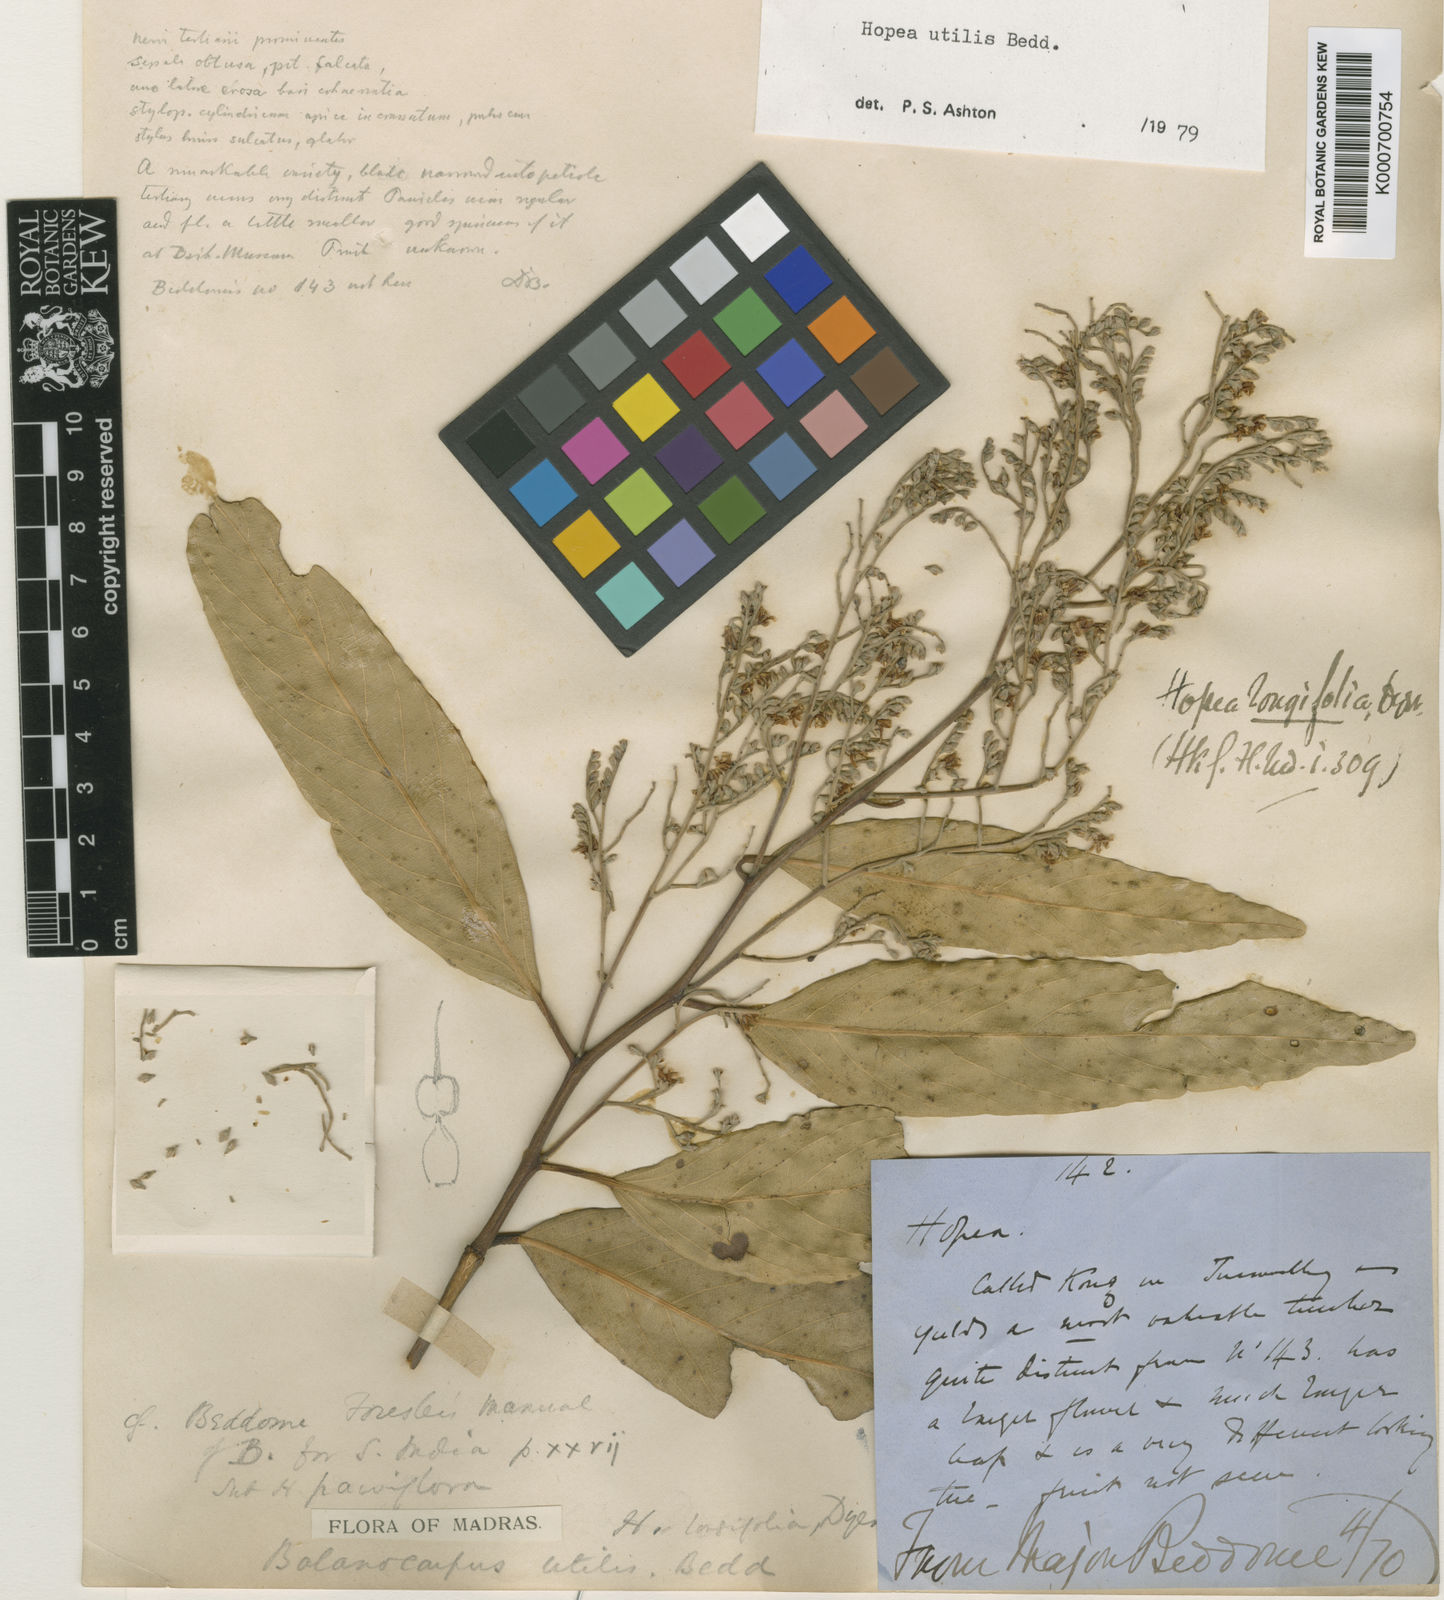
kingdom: Plantae
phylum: Tracheophyta
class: Magnoliopsida
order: Malvales
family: Dipterocarpaceae
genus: Hopea
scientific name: Hopea utilis
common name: Black kongu
